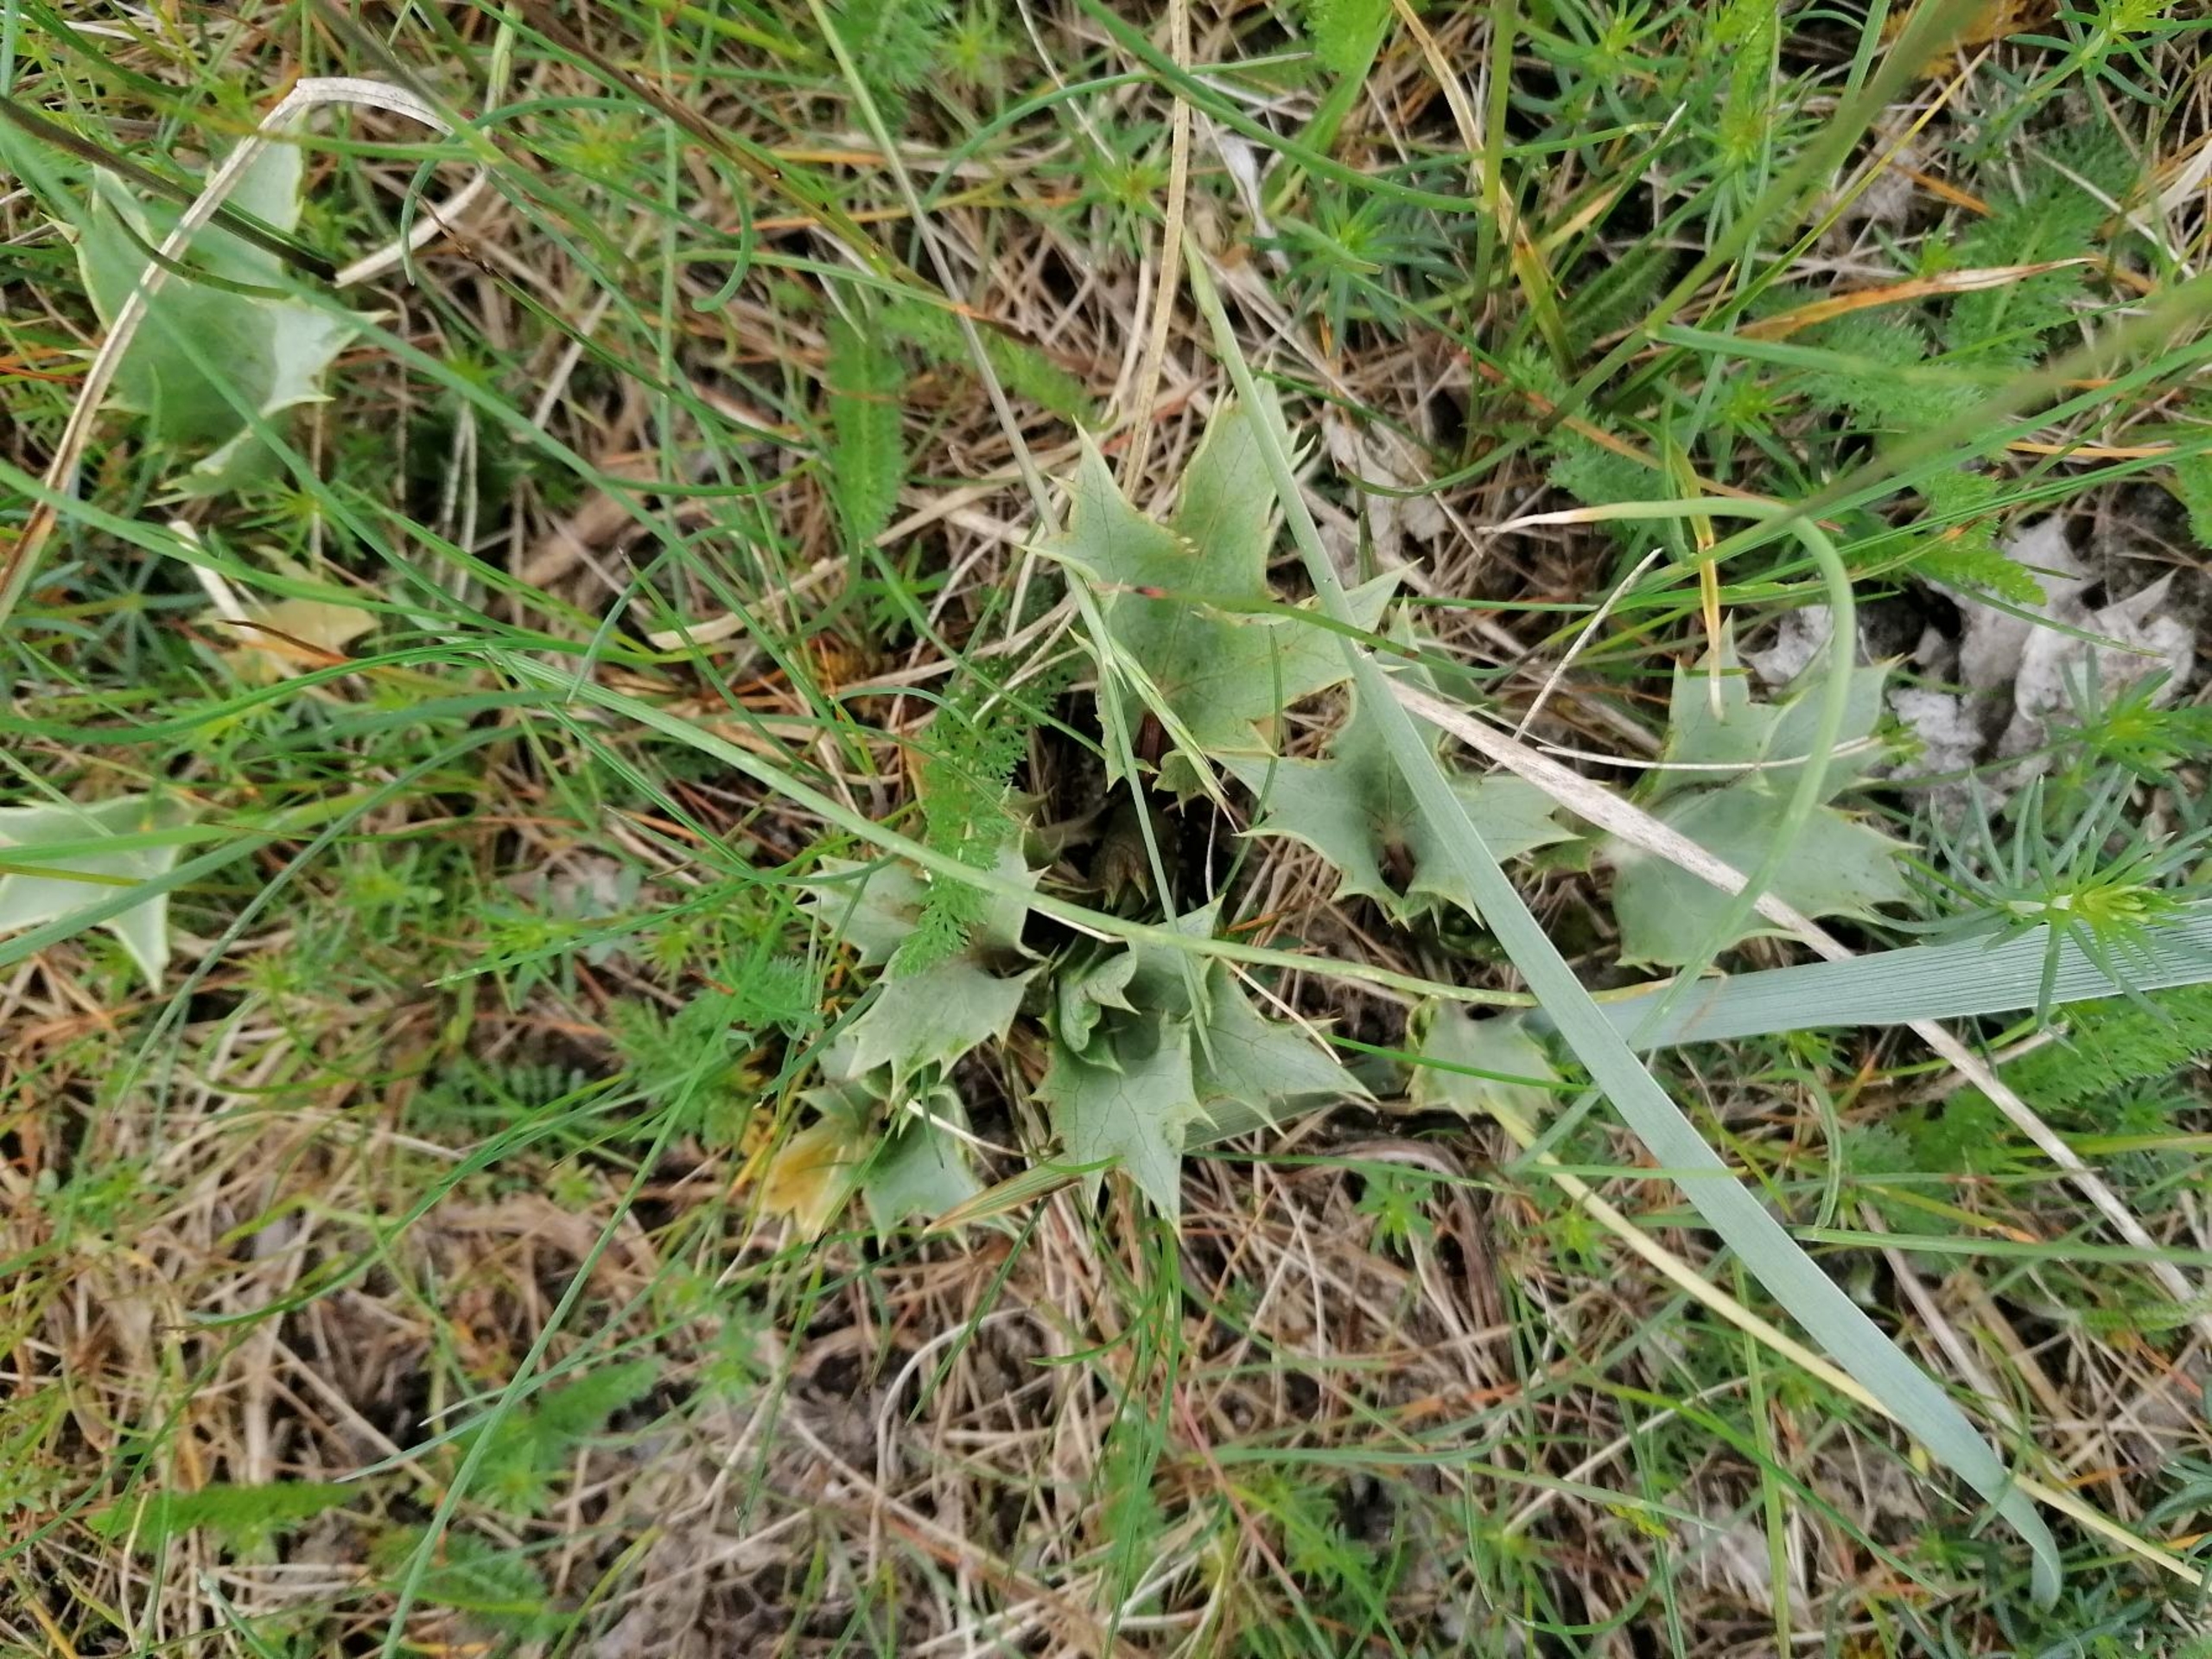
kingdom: Plantae
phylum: Tracheophyta
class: Magnoliopsida
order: Apiales
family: Apiaceae
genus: Eryngium
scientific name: Eryngium maritimum
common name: Strand-mandstro
